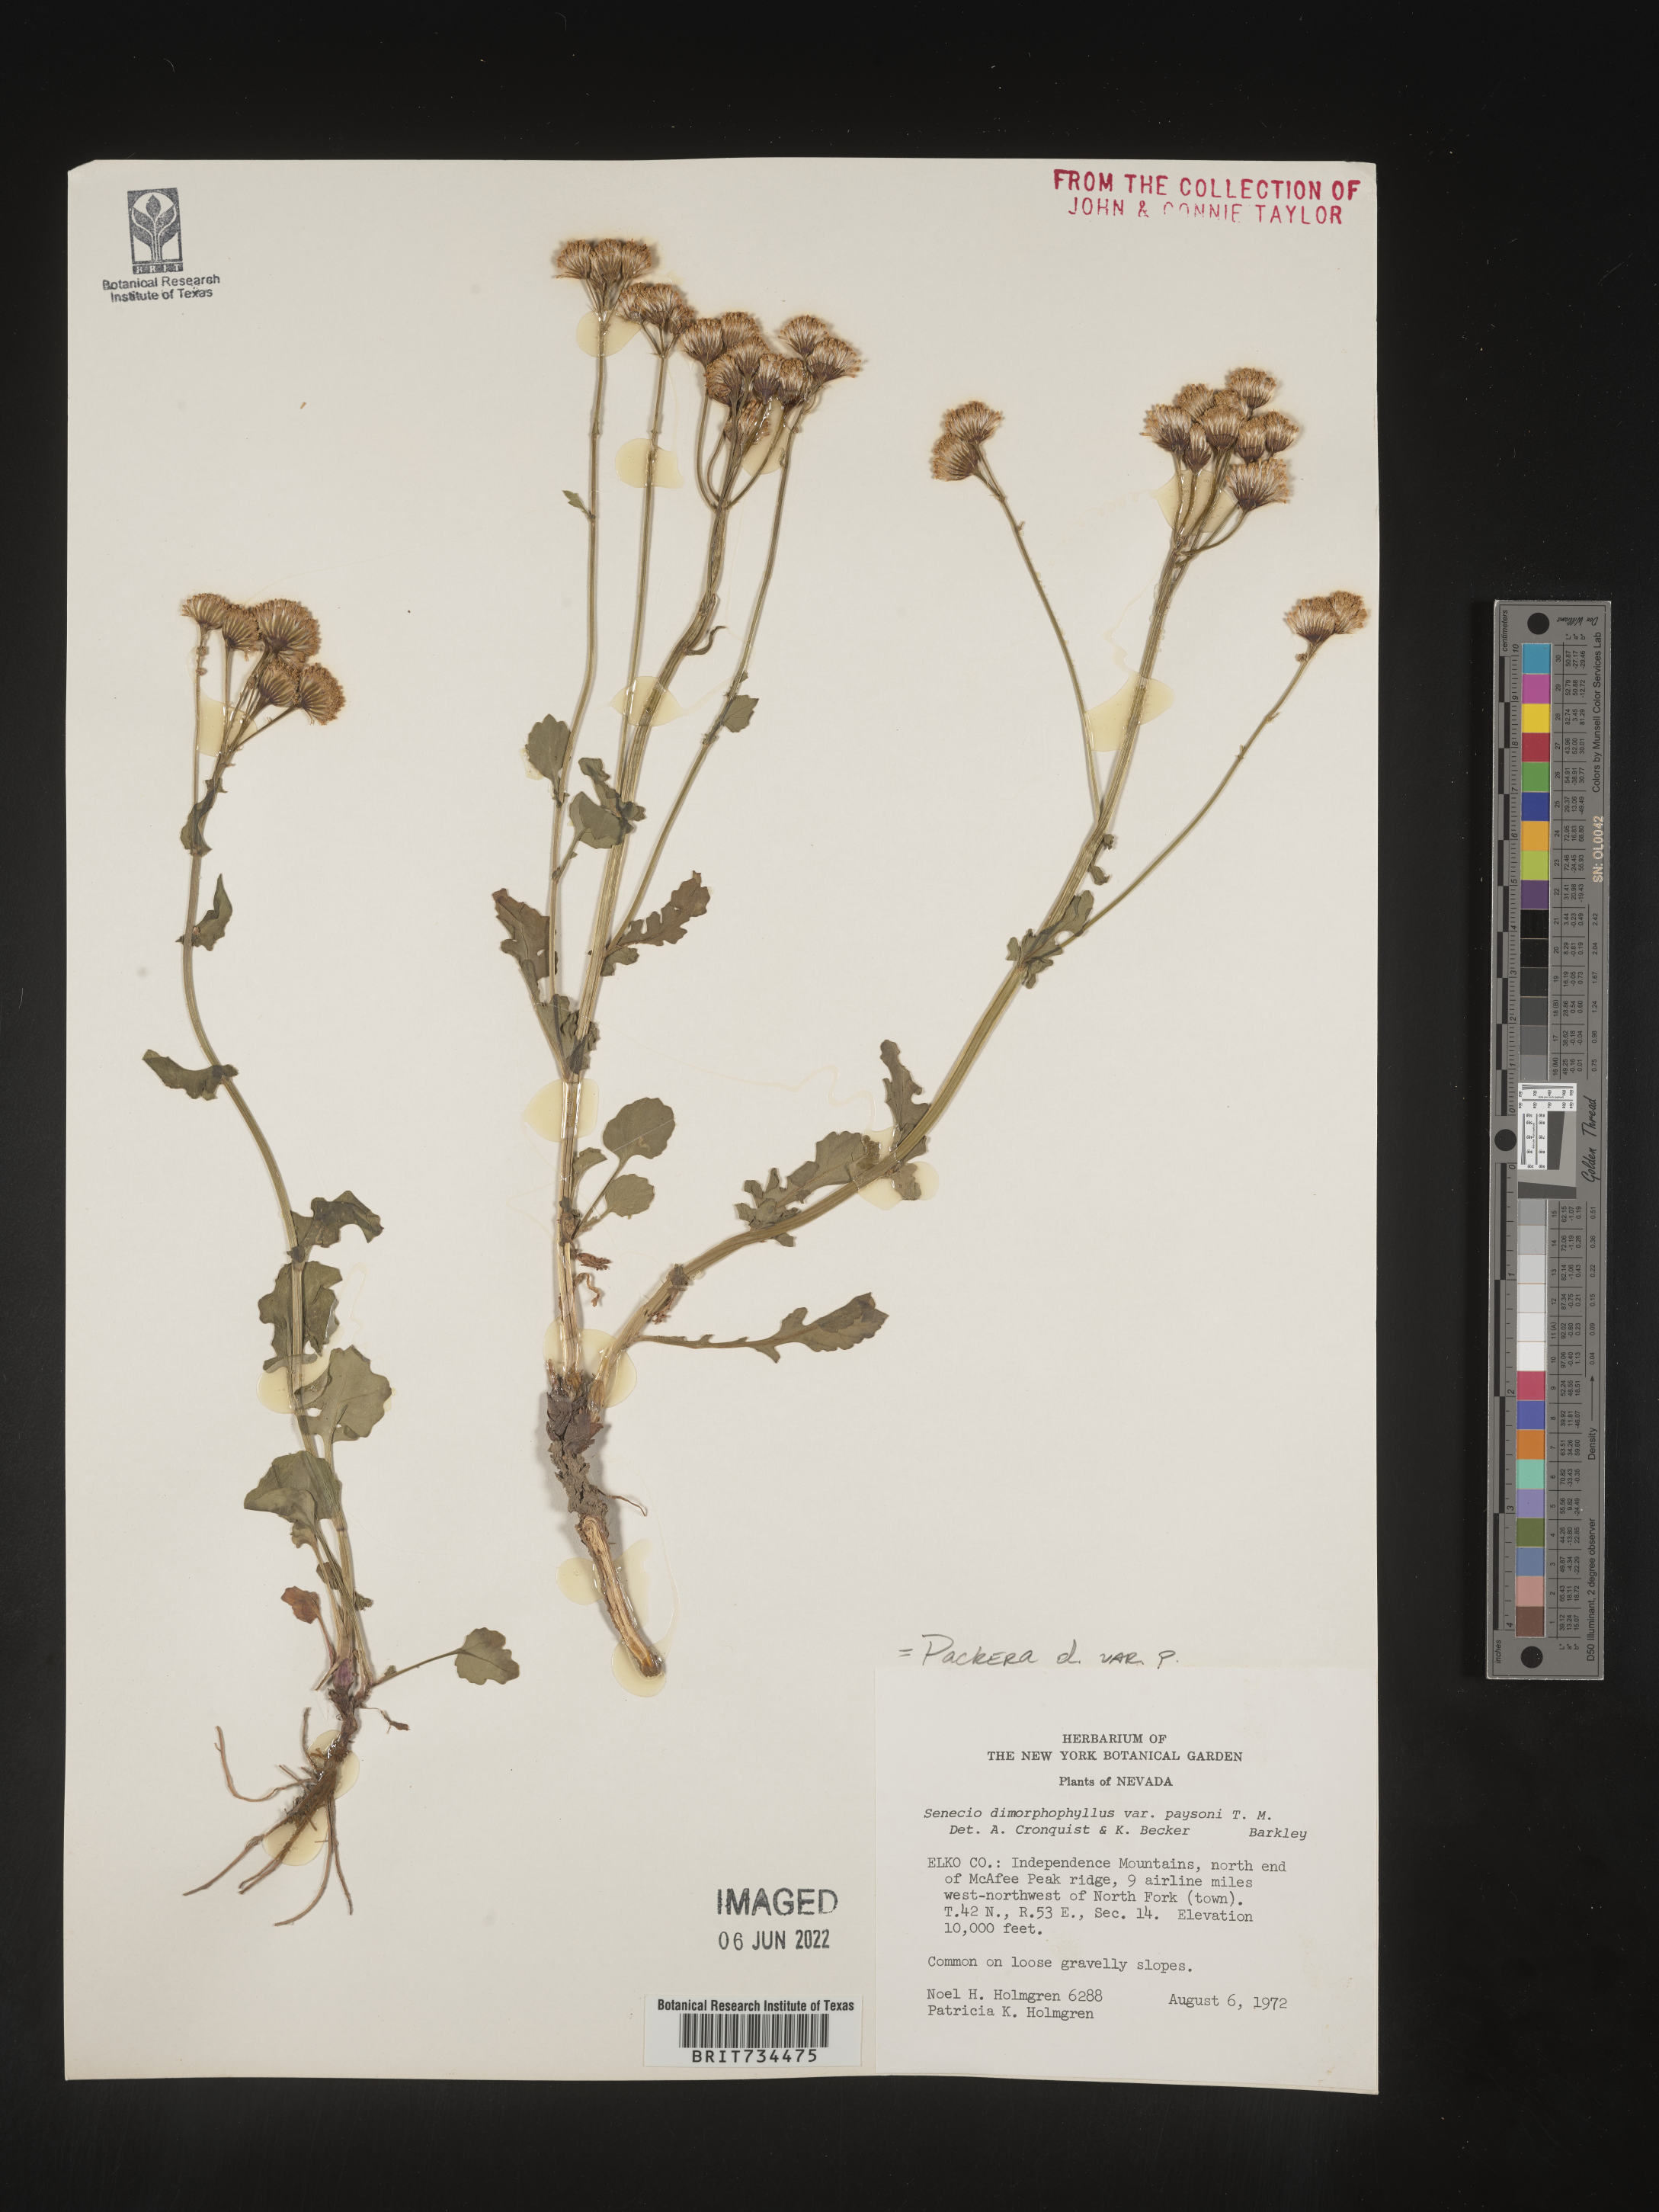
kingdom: Plantae
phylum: Tracheophyta
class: Magnoliopsida
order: Asterales
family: Asteraceae
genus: Packera
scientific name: Packera dimorphophylla
